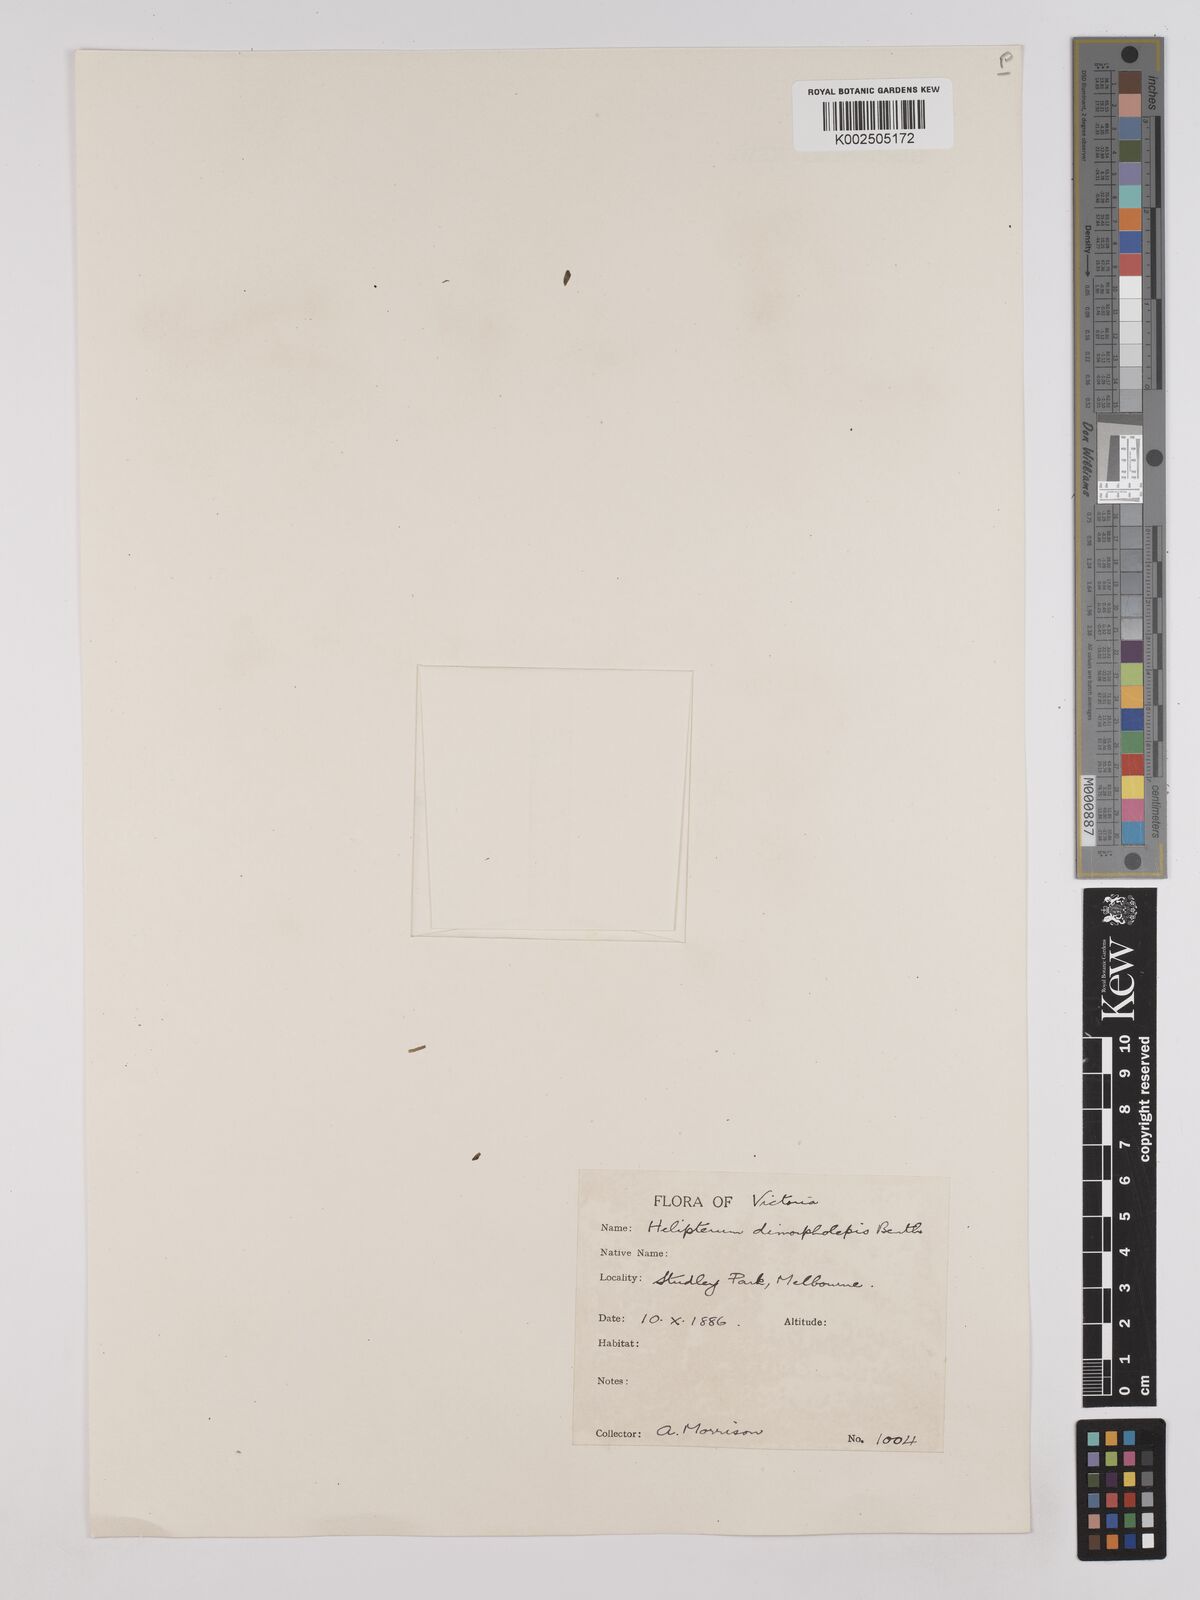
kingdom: Plantae
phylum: Tracheophyta
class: Magnoliopsida
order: Asterales
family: Asteraceae
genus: Triptilodiscus
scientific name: Triptilodiscus pygmaeus
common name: Common sunray
